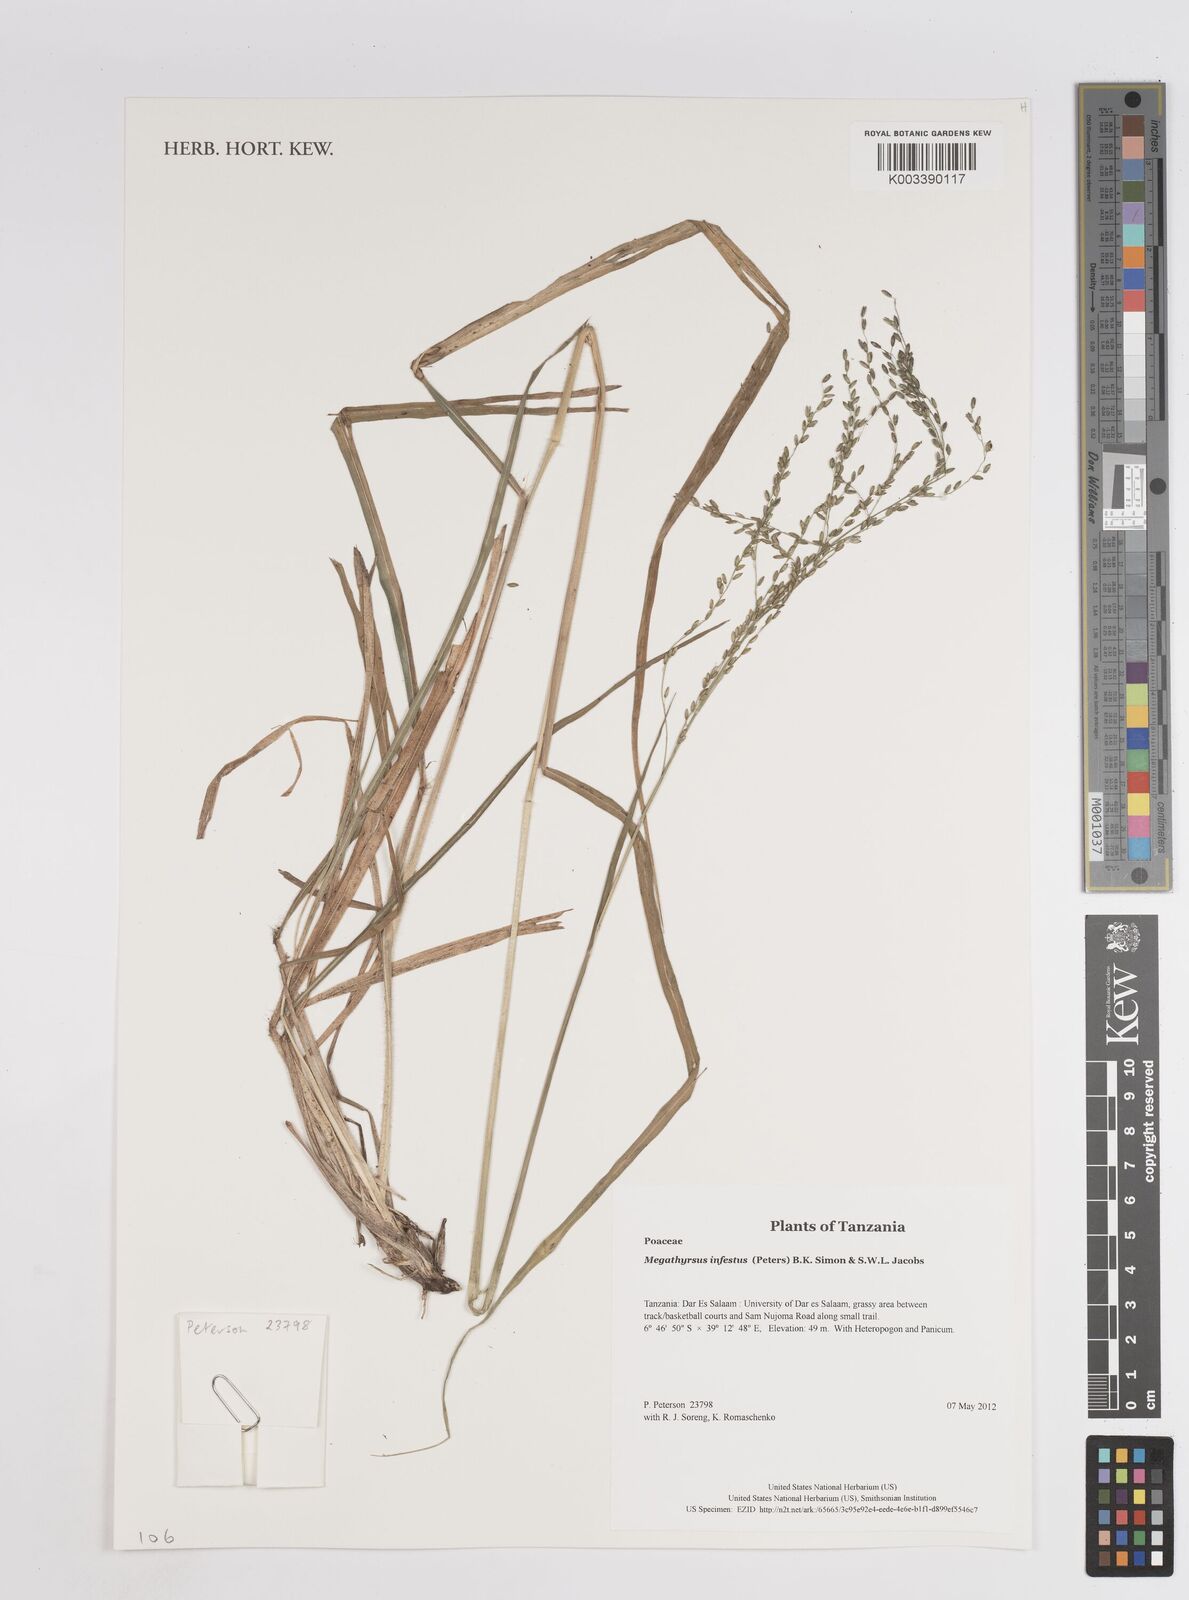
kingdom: Plantae
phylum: Tracheophyta
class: Liliopsida
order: Poales
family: Poaceae
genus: Megathyrsus
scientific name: Megathyrsus infestus
